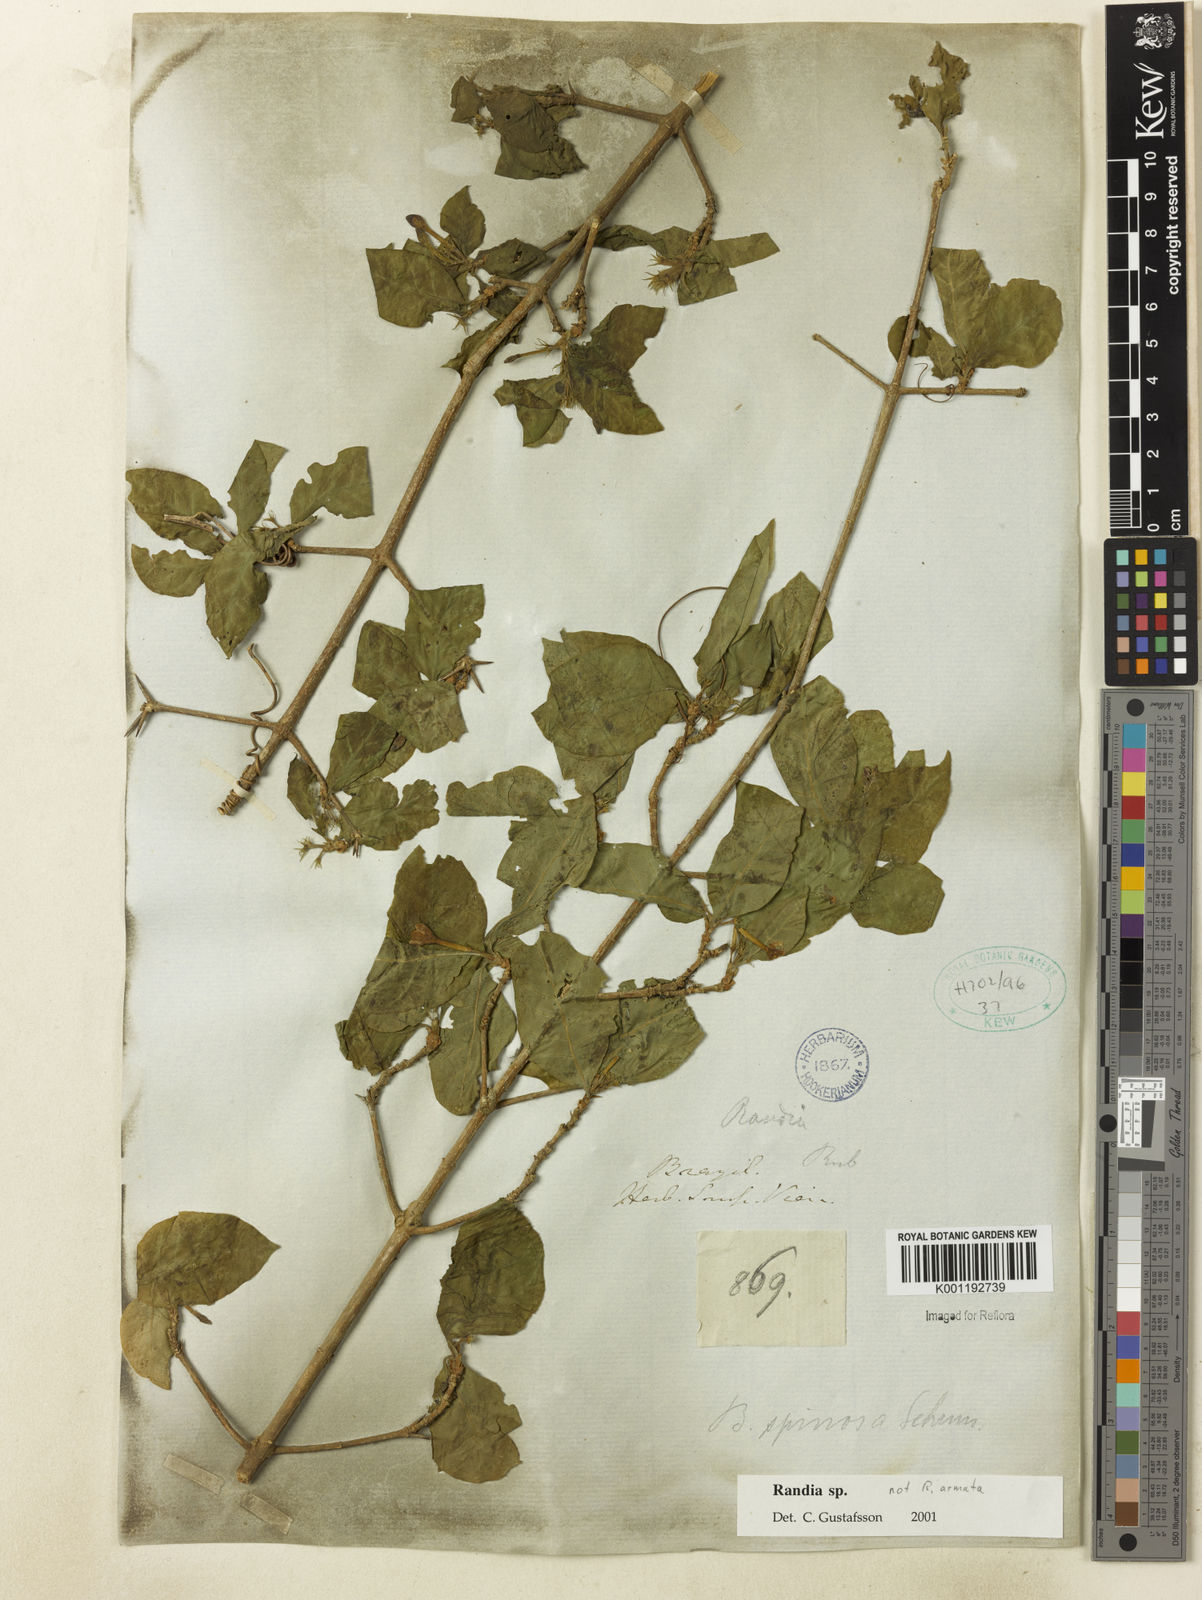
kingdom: Plantae
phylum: Tracheophyta
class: Magnoliopsida
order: Gentianales
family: Rubiaceae
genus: Randia
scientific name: Randia
